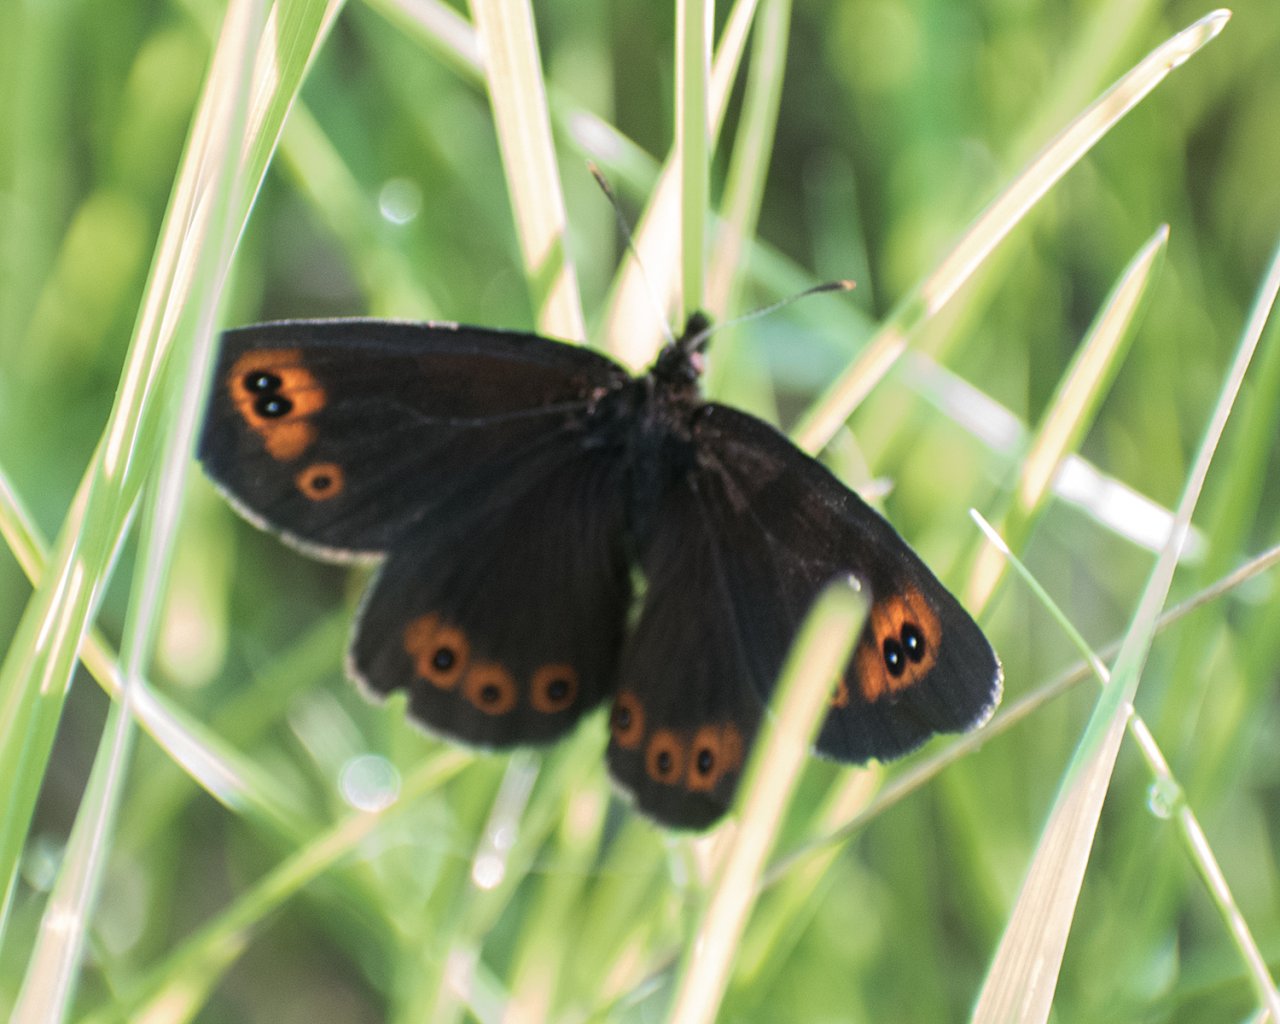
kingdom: Animalia
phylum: Arthropoda
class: Insecta
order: Lepidoptera
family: Nymphalidae
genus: Erebia
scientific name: Erebia epipsodea
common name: Common Alpine
